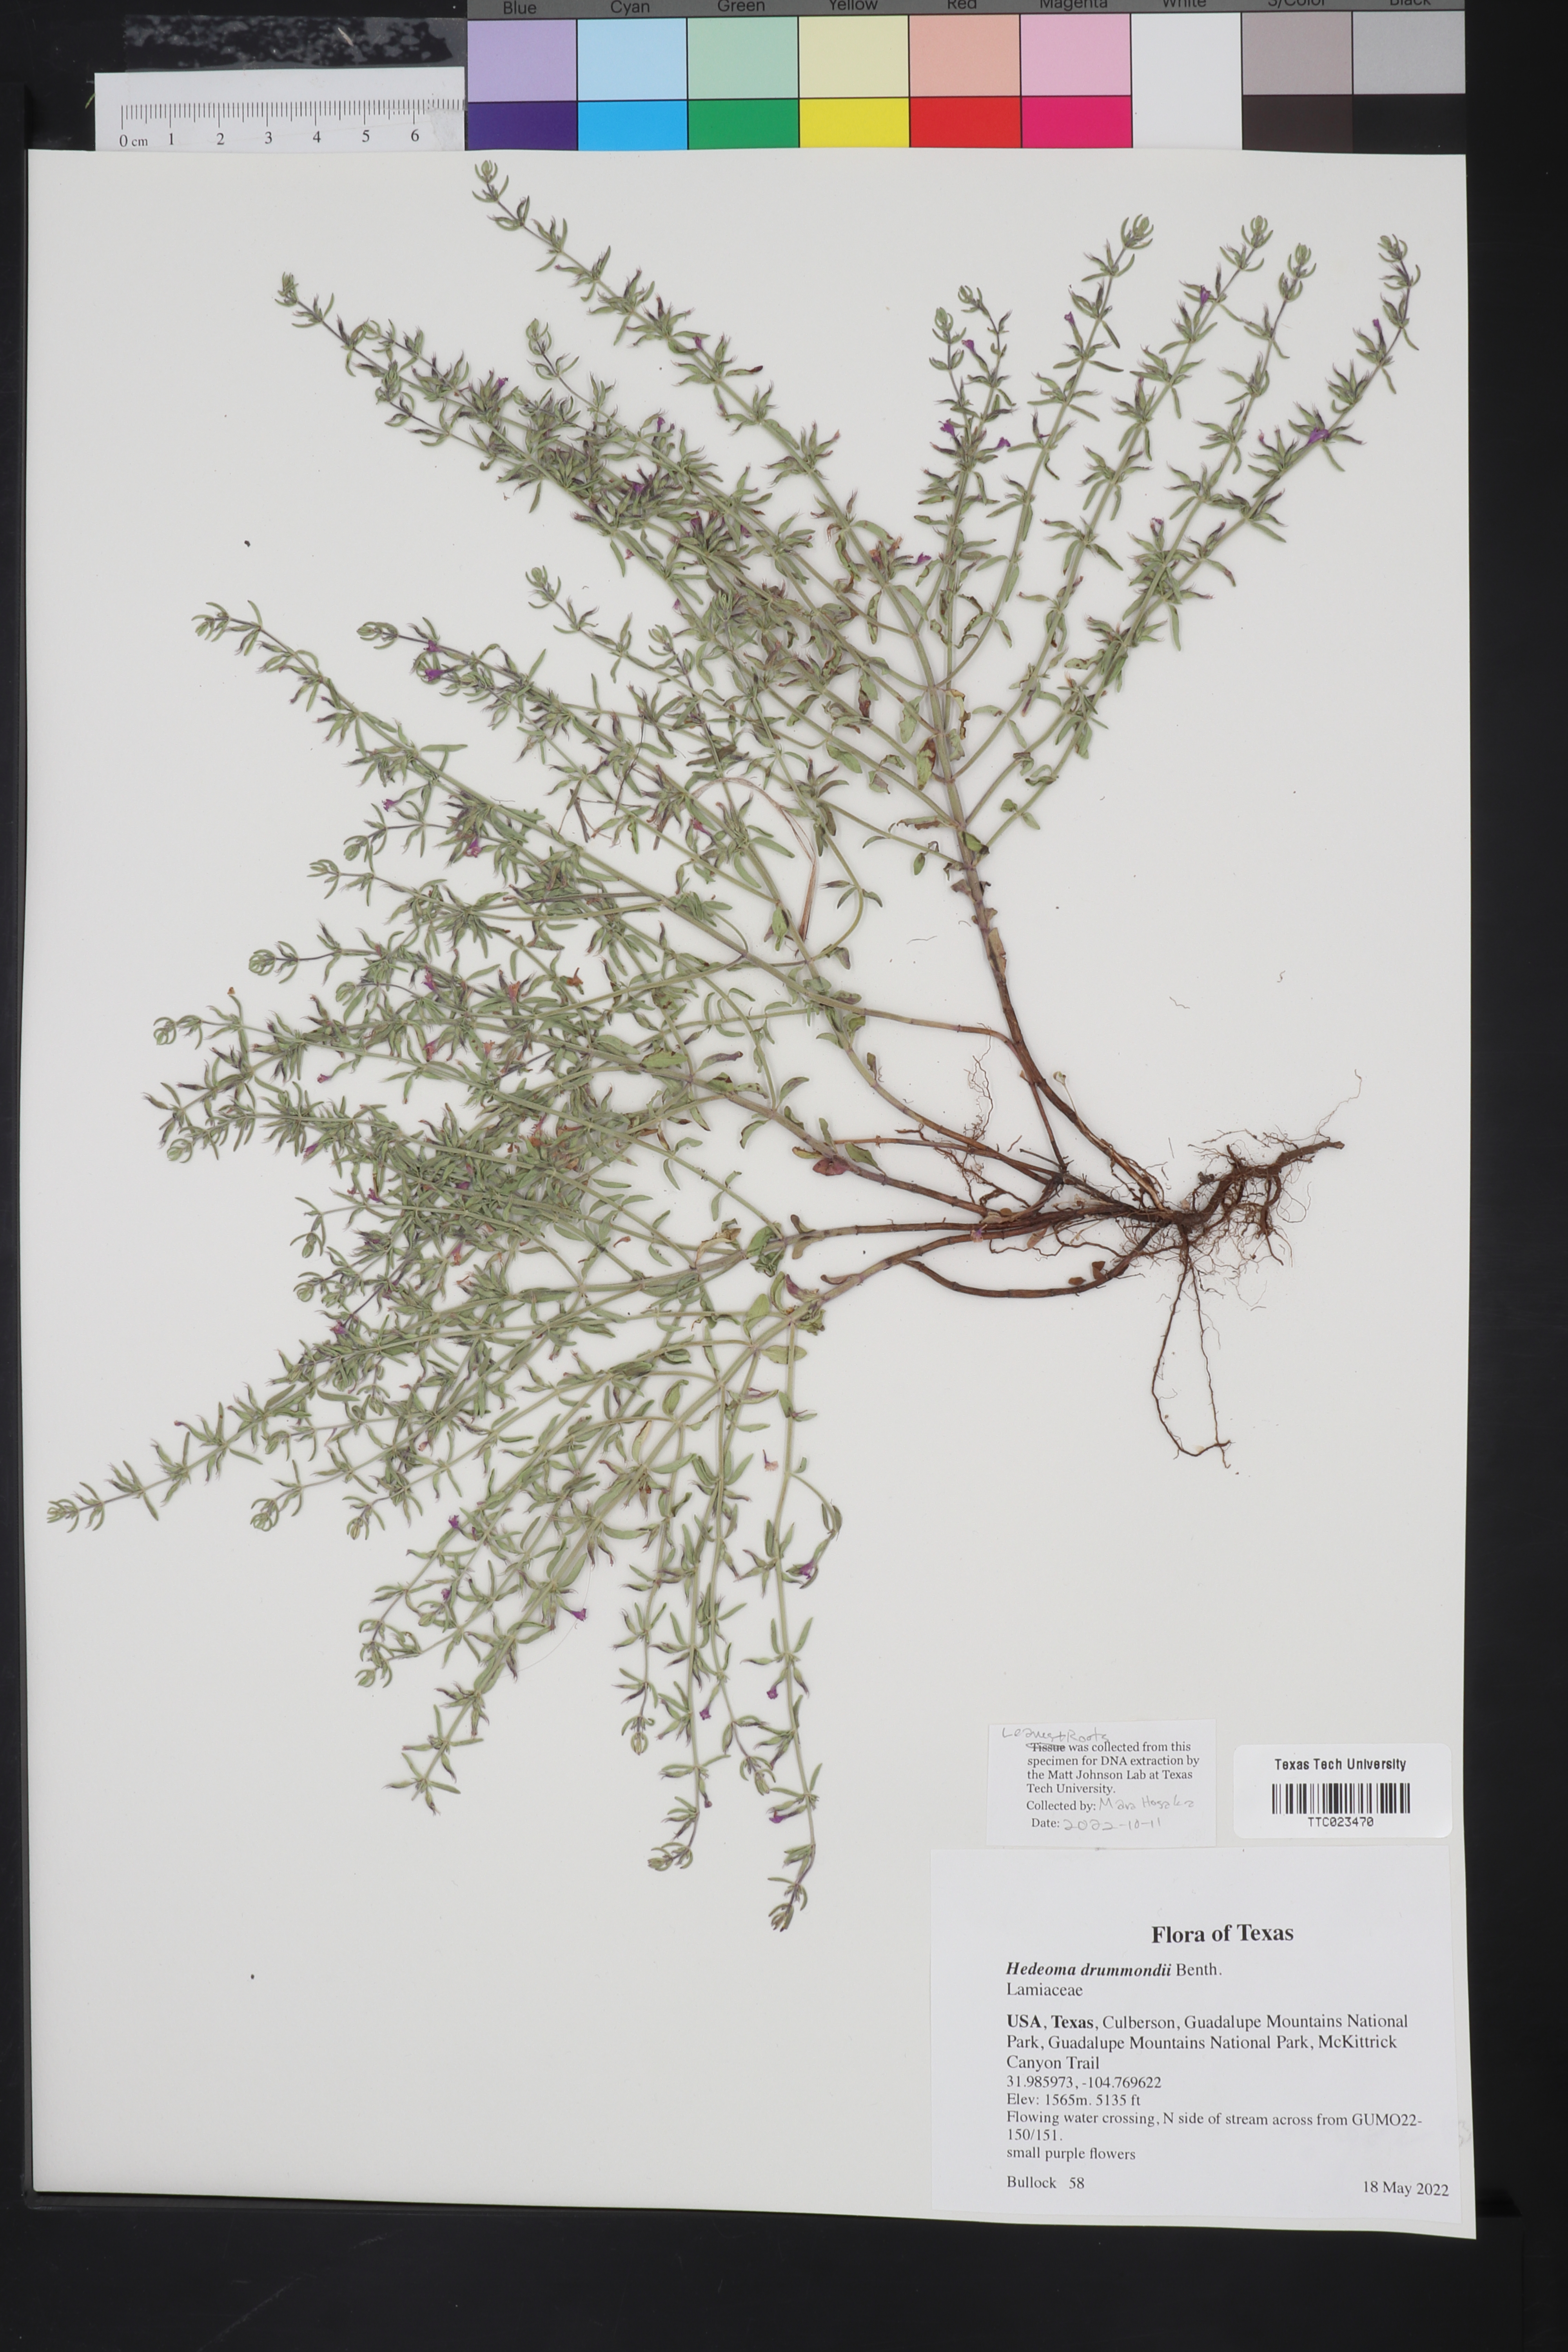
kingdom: Plantae
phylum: Tracheophyta
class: Magnoliopsida
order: Lamiales
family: Lamiaceae
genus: Hedeoma
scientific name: Hedeoma drummondii
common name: New mexico pennyroyal
